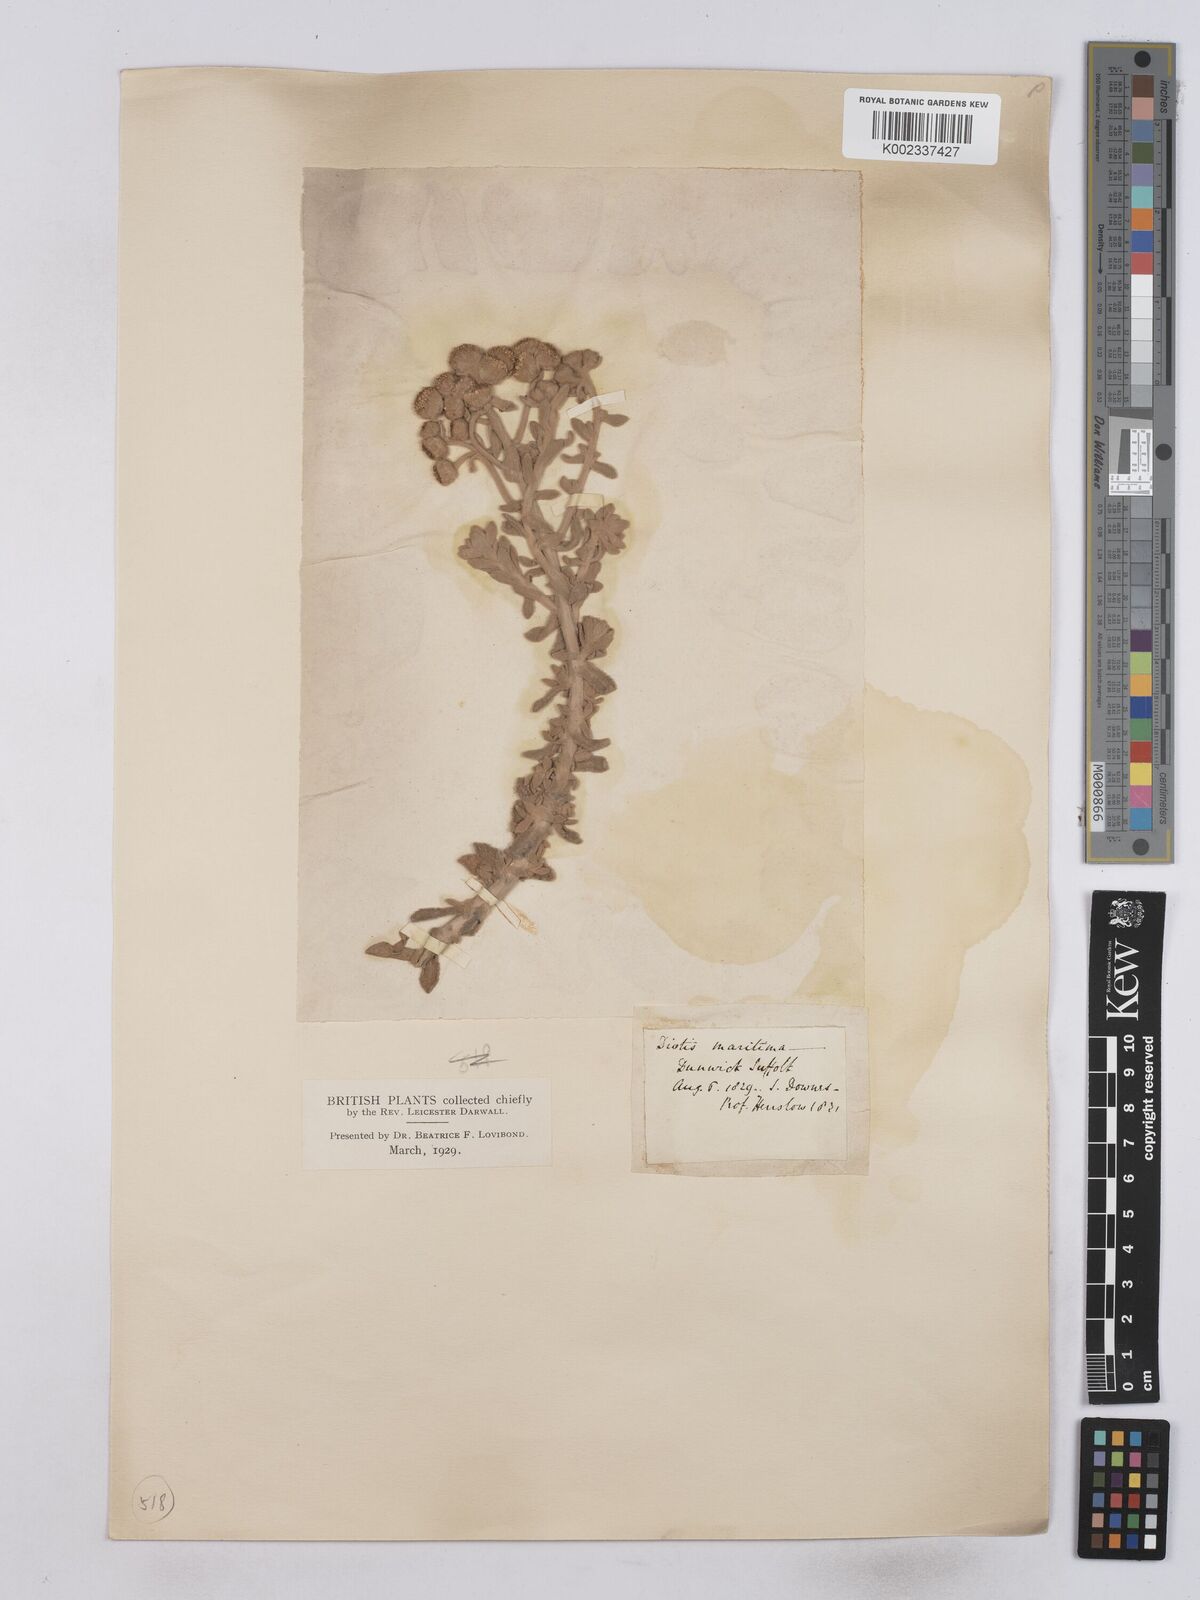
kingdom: Plantae
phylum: Tracheophyta
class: Magnoliopsida
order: Asterales
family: Asteraceae
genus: Achillea
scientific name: Achillea maritima
